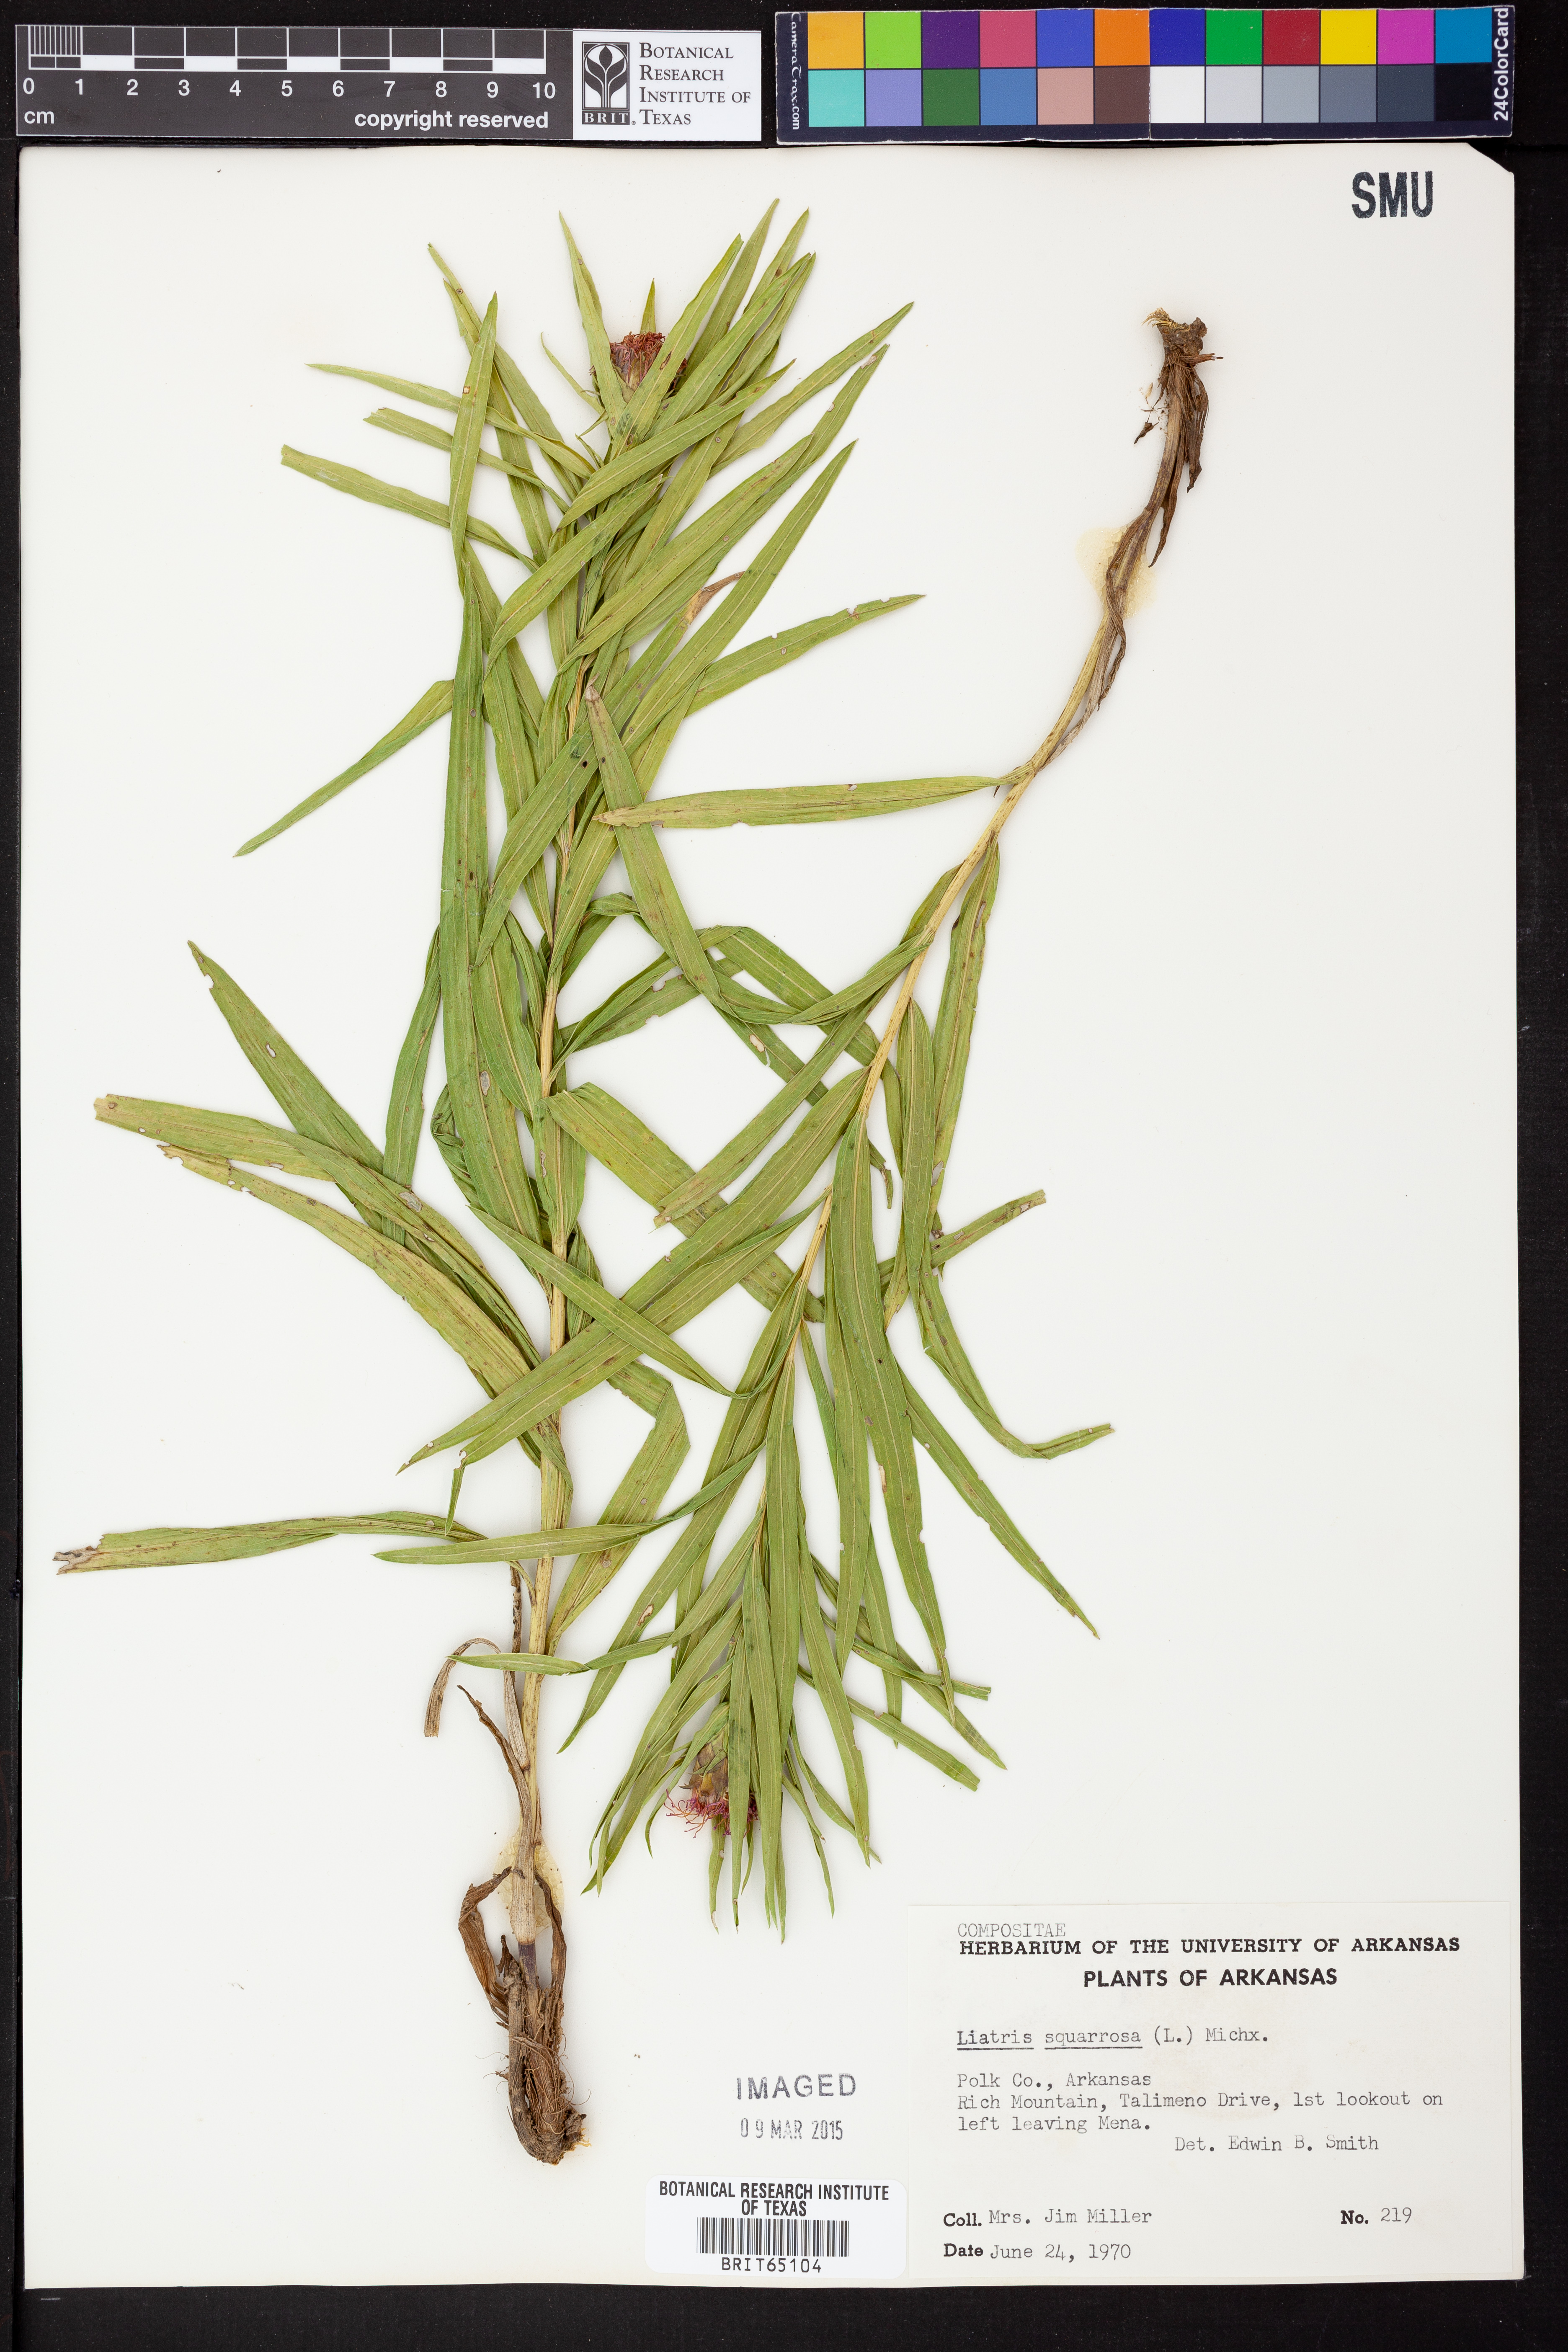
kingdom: Plantae
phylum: Tracheophyta
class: Magnoliopsida
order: Asterales
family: Asteraceae
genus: Liatris
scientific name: Liatris compacta
